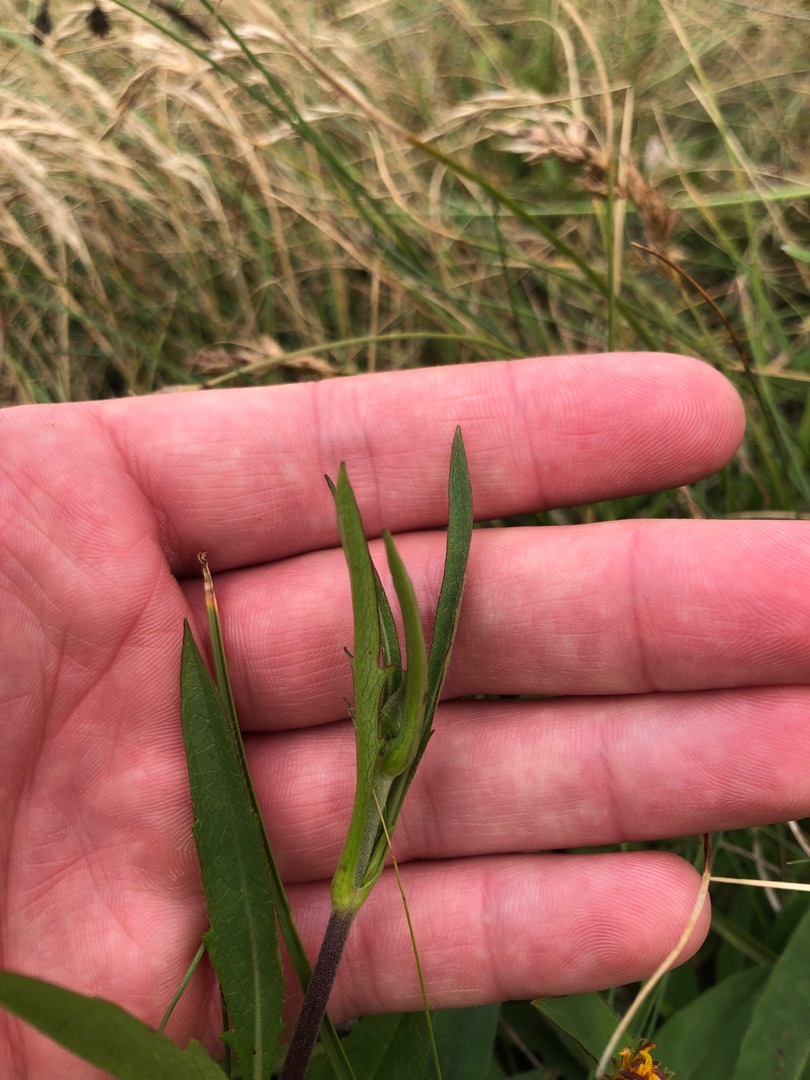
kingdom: Plantae
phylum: Tracheophyta
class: Magnoliopsida
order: Dipsacales
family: Caprifoliaceae
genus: Succisa
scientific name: Succisa pratensis
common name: Djævelsbid
